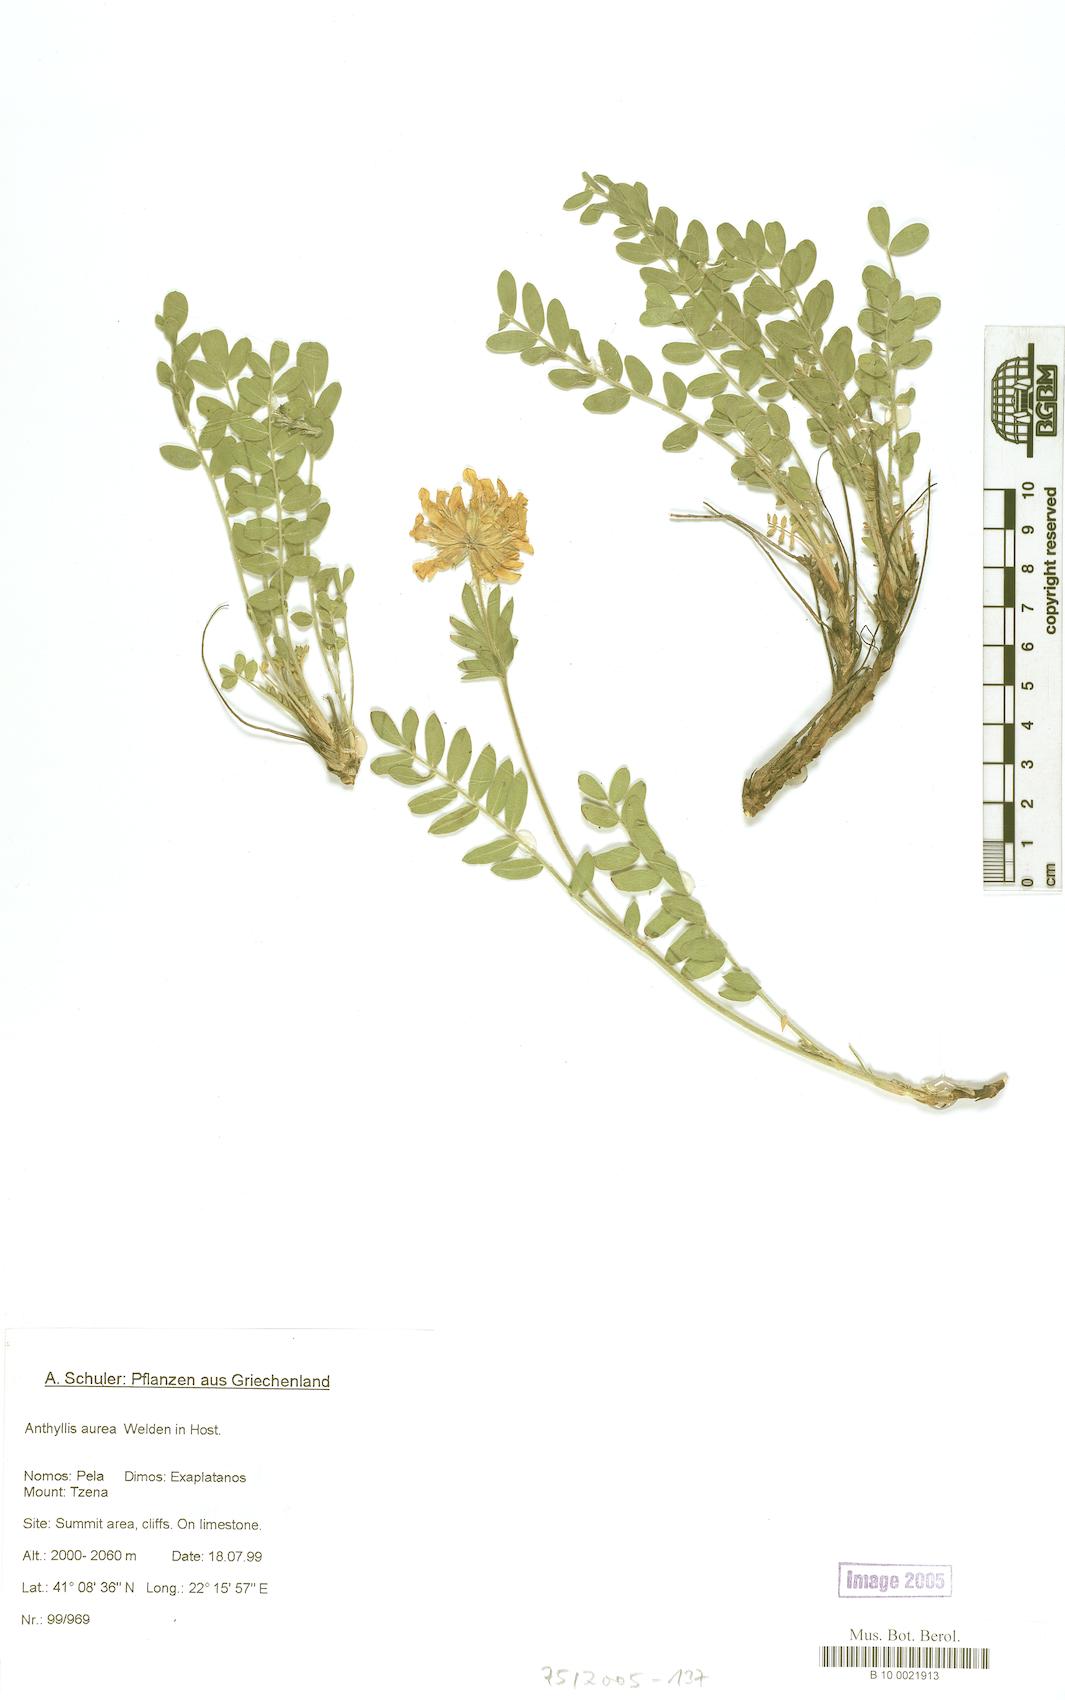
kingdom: Plantae
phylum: Tracheophyta
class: Magnoliopsida
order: Fabales
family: Fabaceae
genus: Anthyllis
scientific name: Anthyllis aurea
